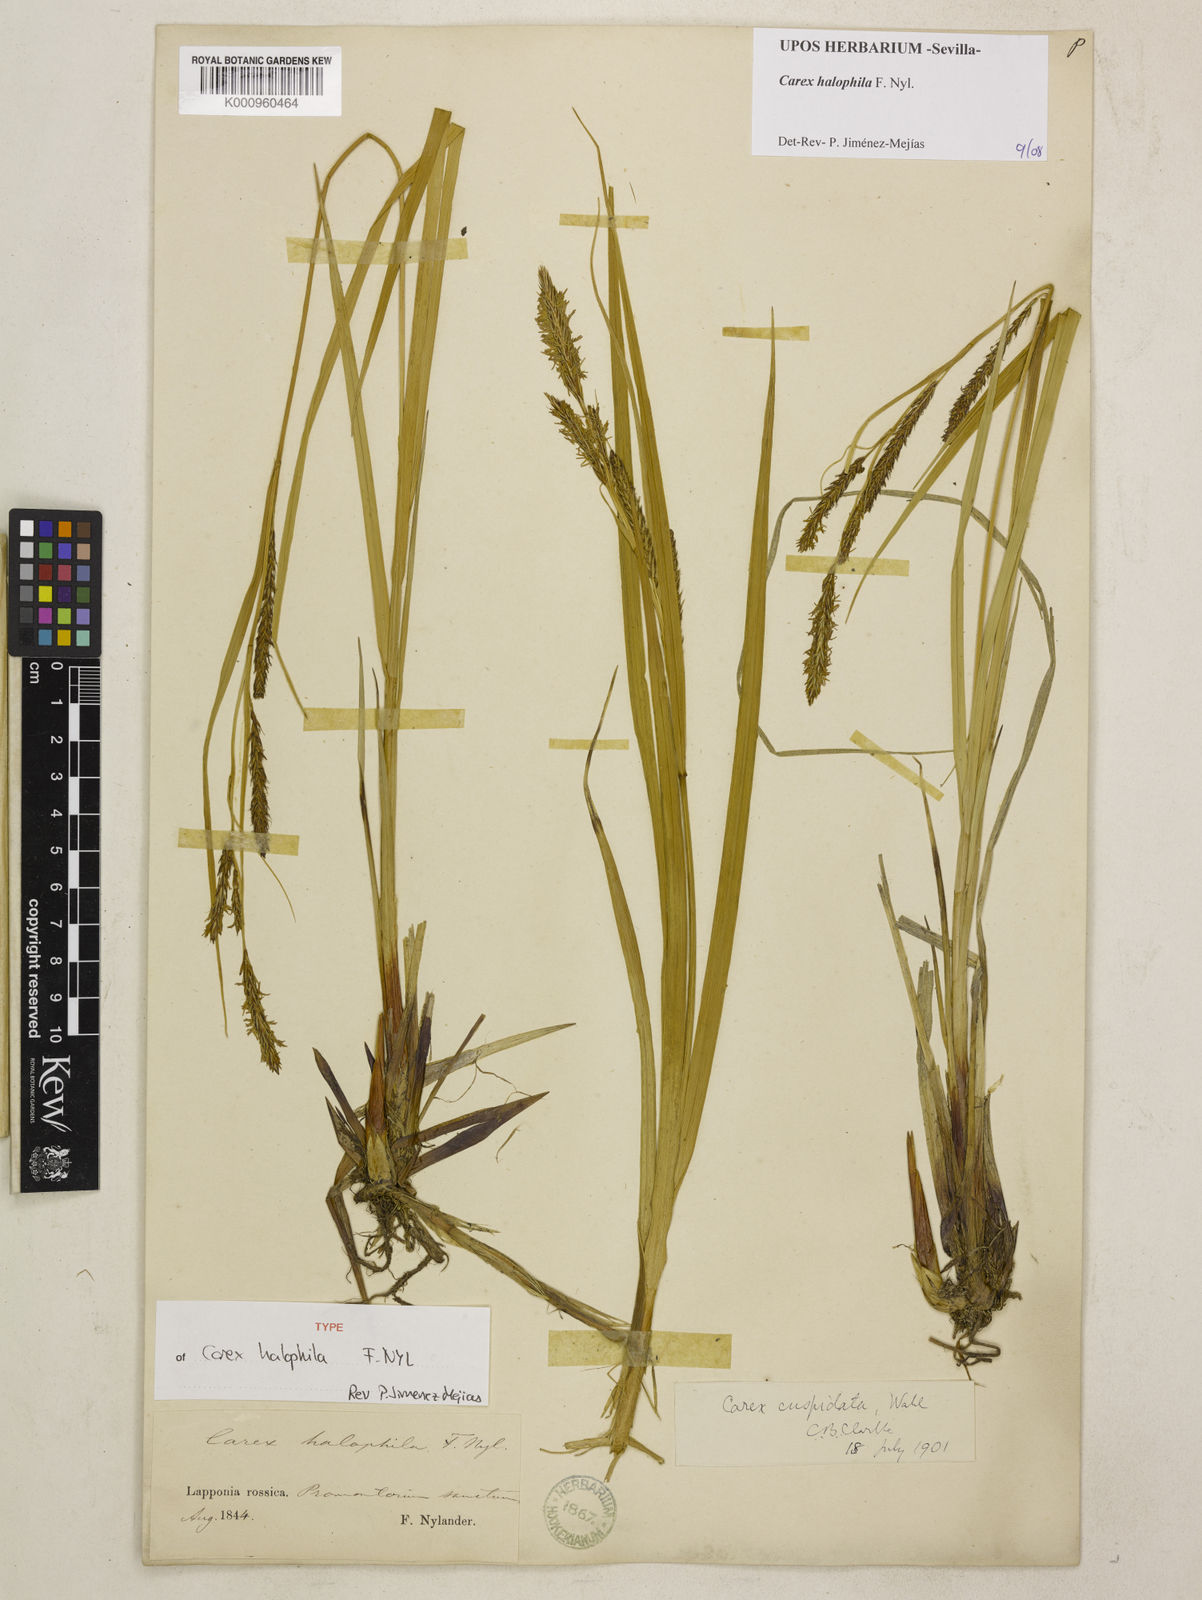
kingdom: Plantae
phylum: Tracheophyta
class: Liliopsida
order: Poales
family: Cyperaceae
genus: Carex
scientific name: Carex aquatilis
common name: Water sedge
